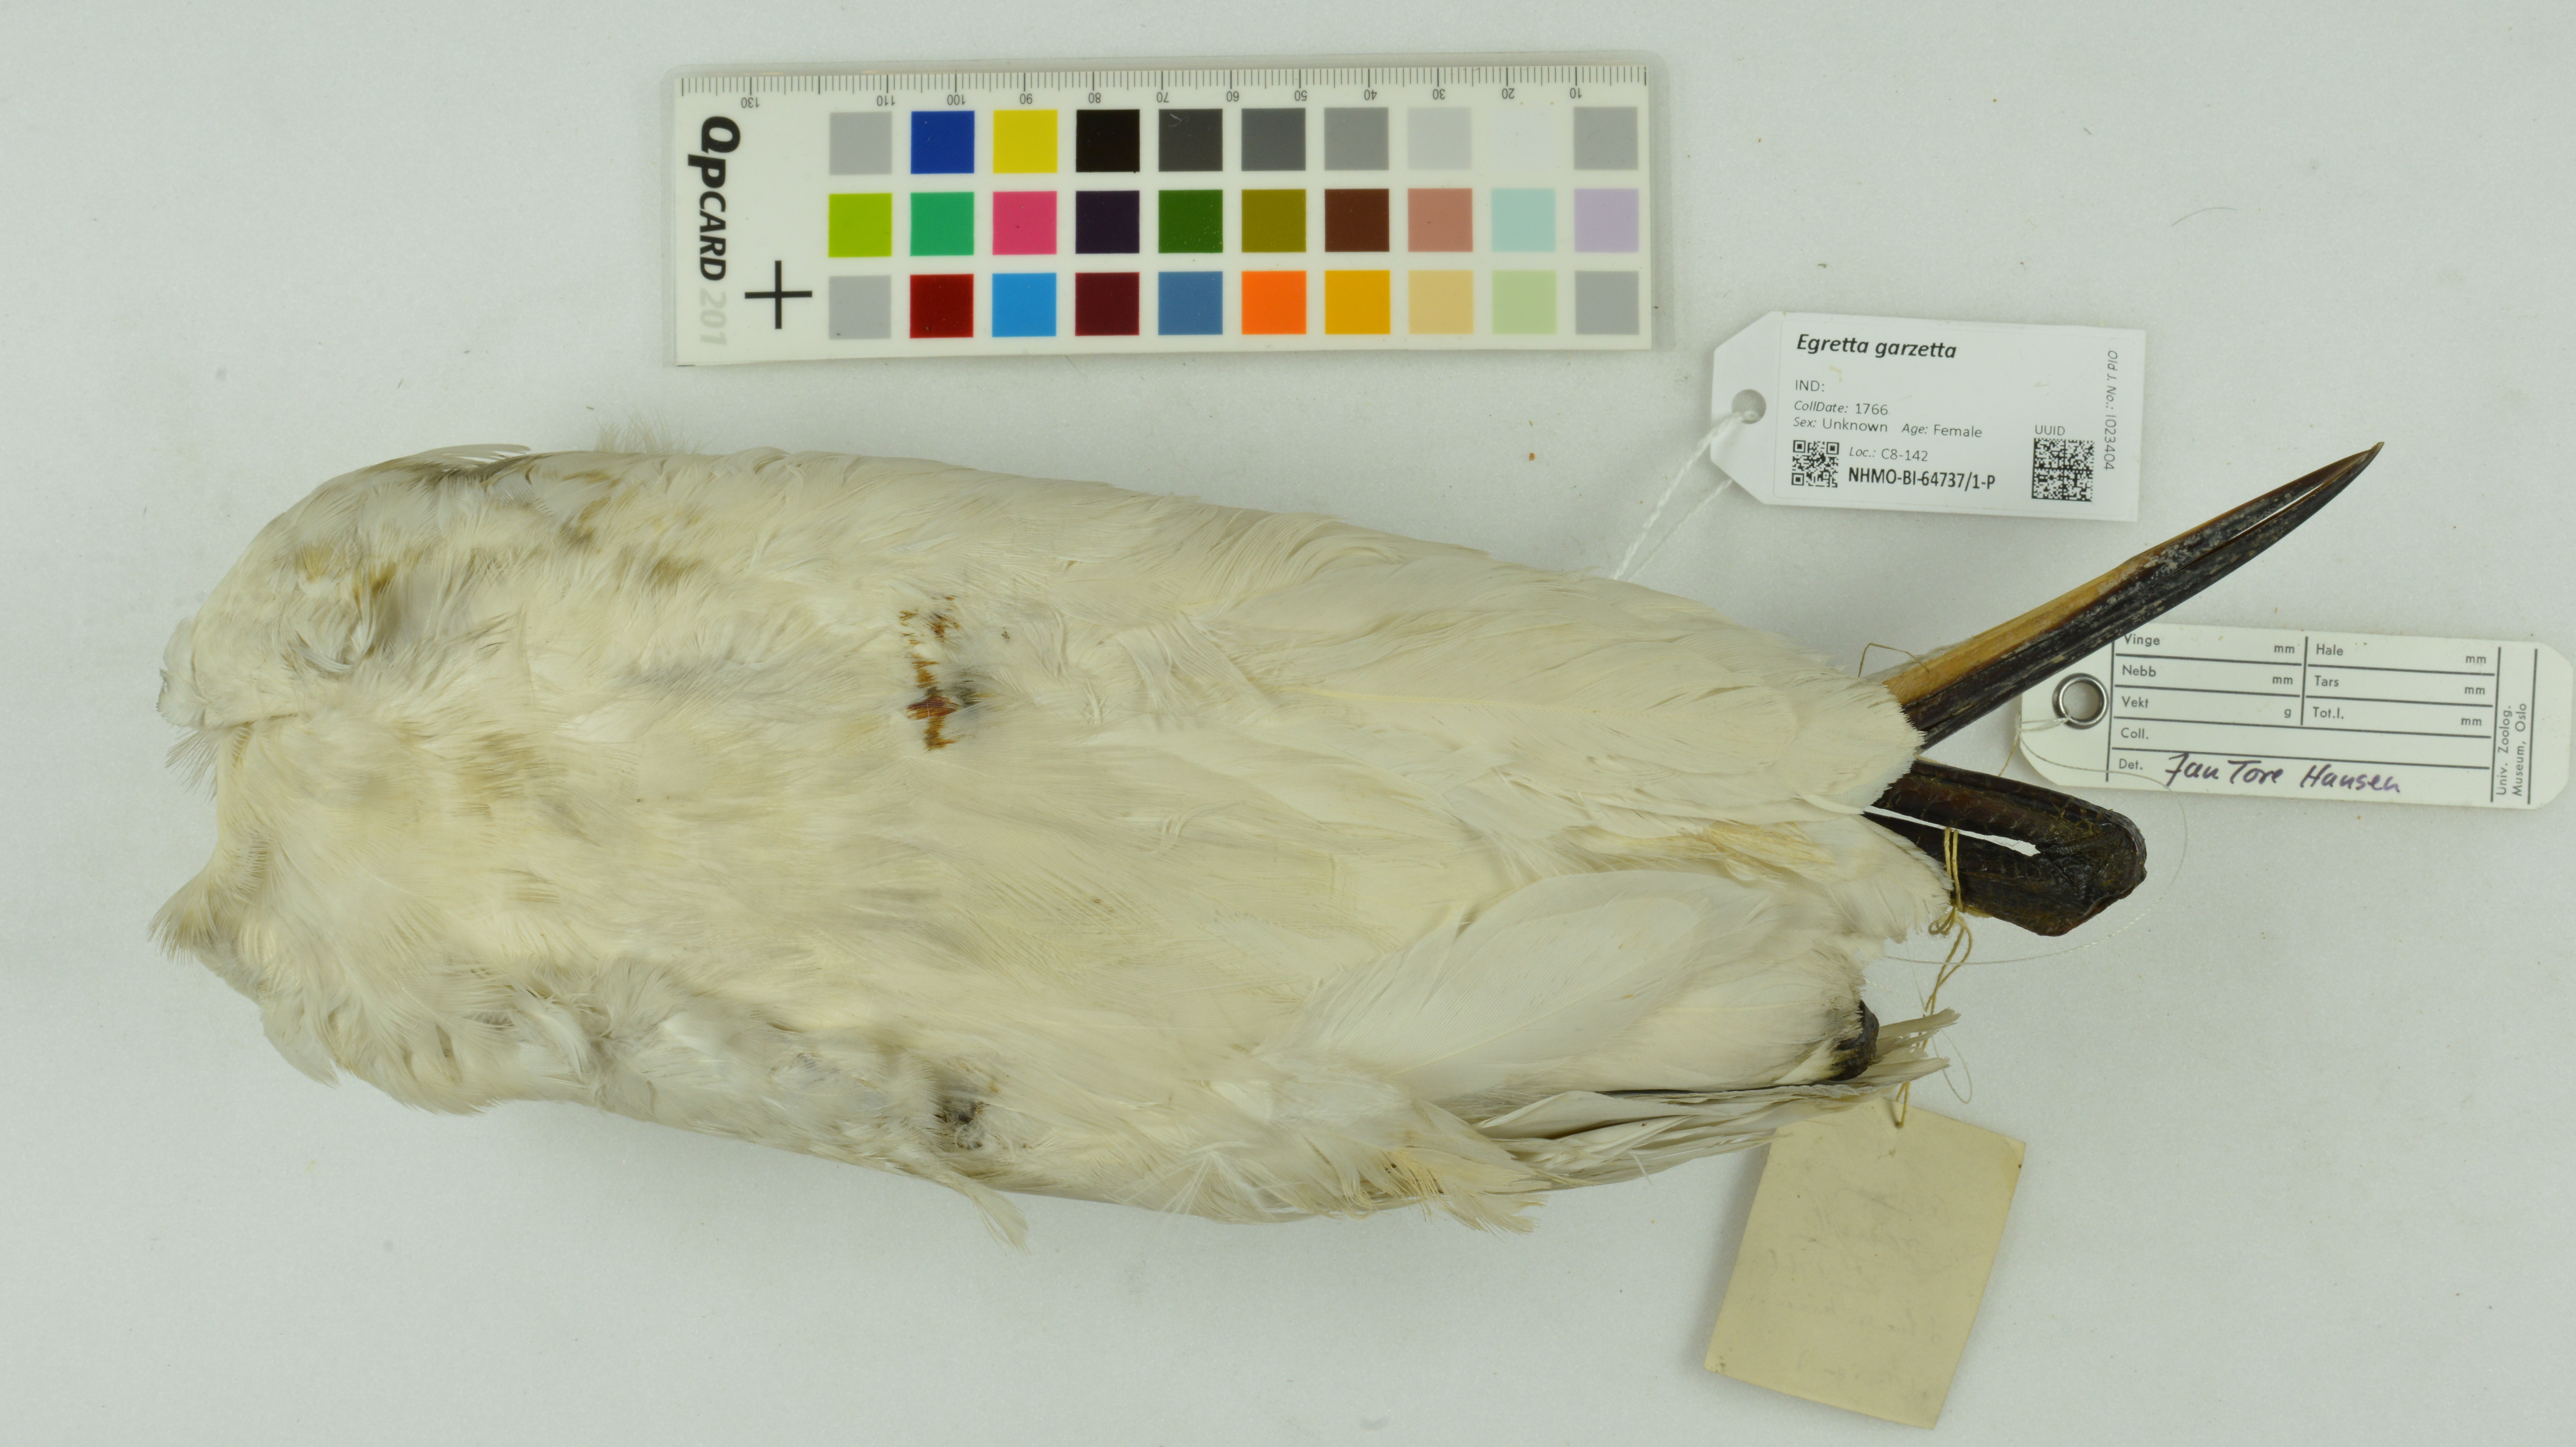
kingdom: Animalia
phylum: Chordata
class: Aves
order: Pelecaniformes
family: Ardeidae
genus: Egretta
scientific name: Egretta garzetta
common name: Little egret
